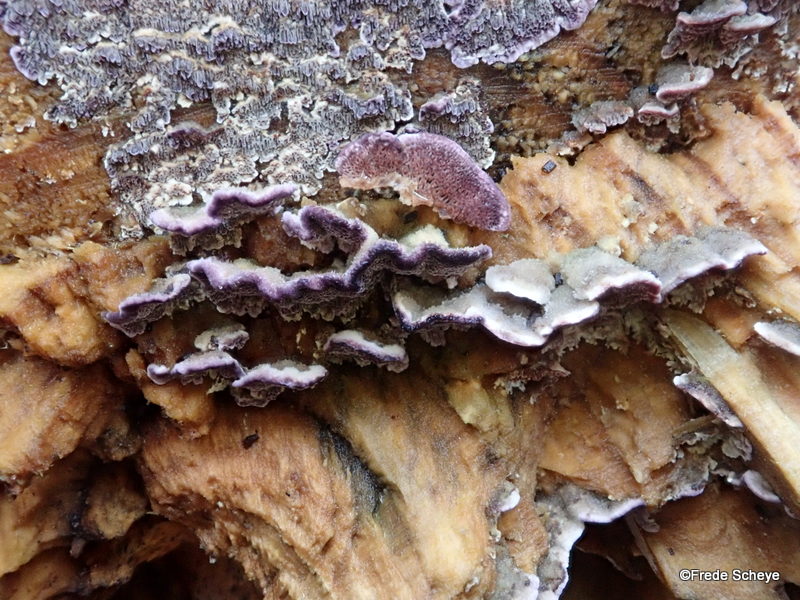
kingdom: Fungi
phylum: Basidiomycota
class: Agaricomycetes
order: Hymenochaetales
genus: Trichaptum
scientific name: Trichaptum abietinum
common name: almindelig violporesvamp
